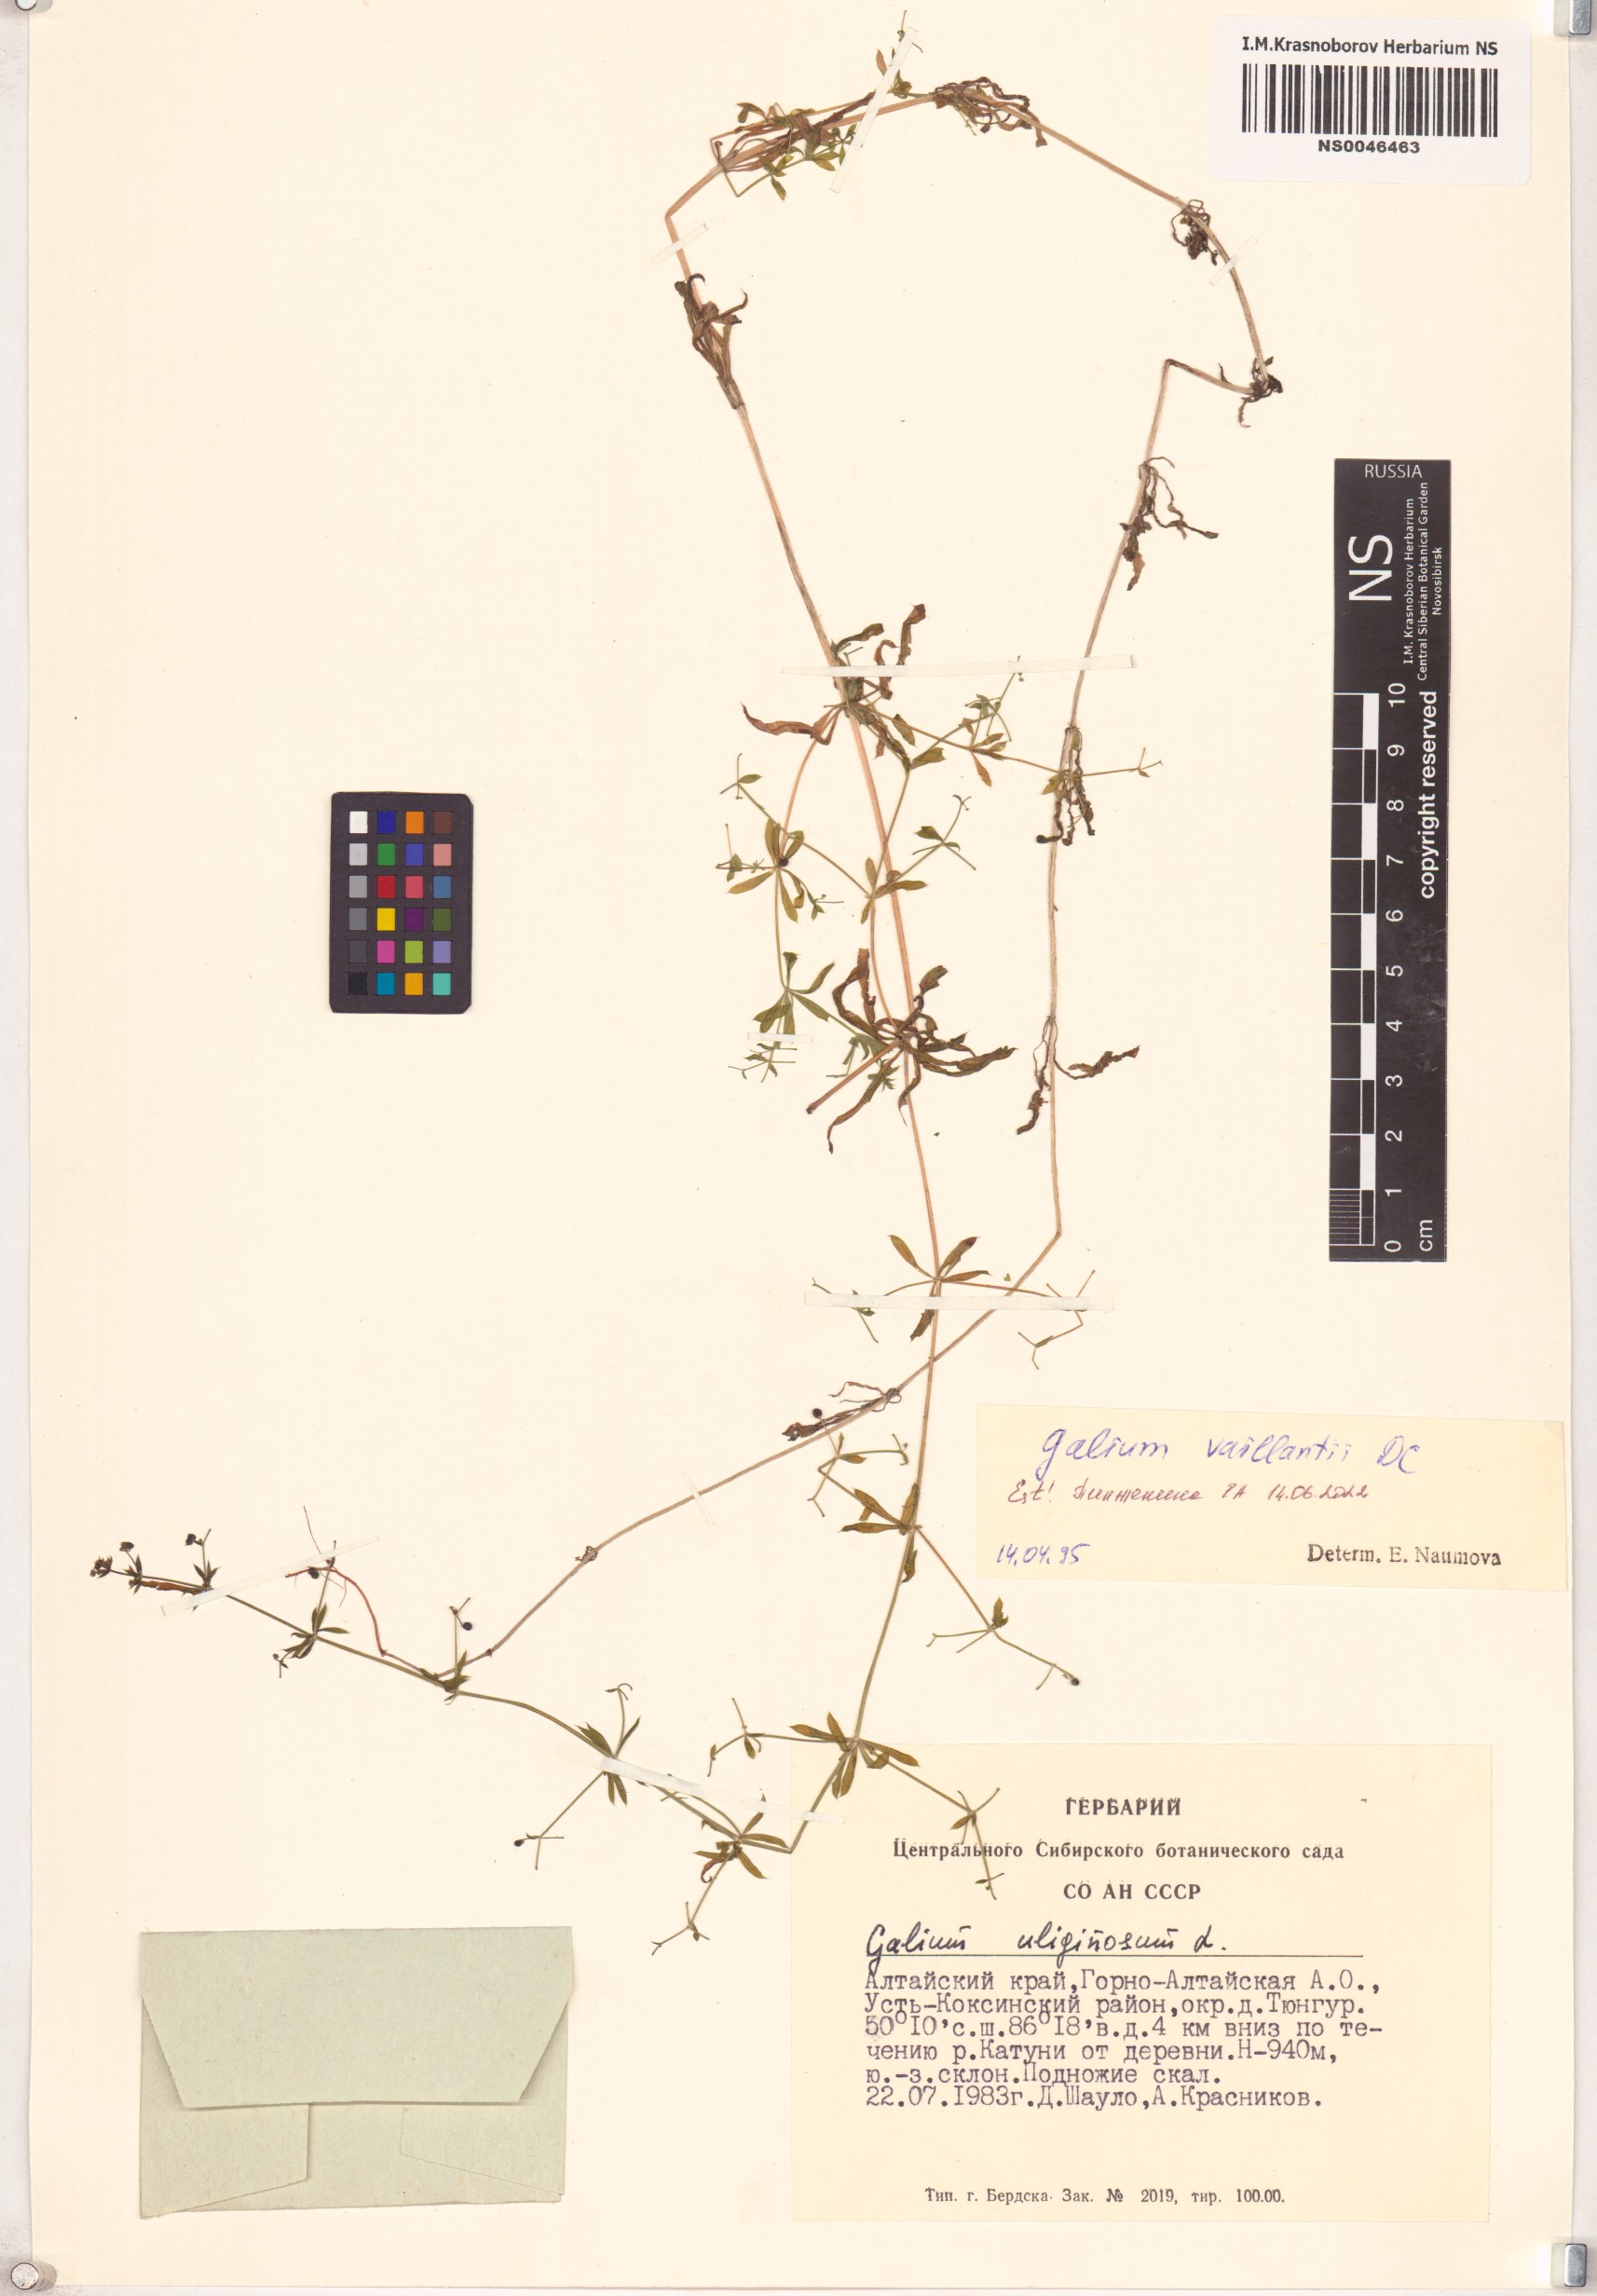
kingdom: Plantae
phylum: Tracheophyta
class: Magnoliopsida
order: Gentianales
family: Rubiaceae
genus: Galium
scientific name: Galium spurium
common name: False cleavers
